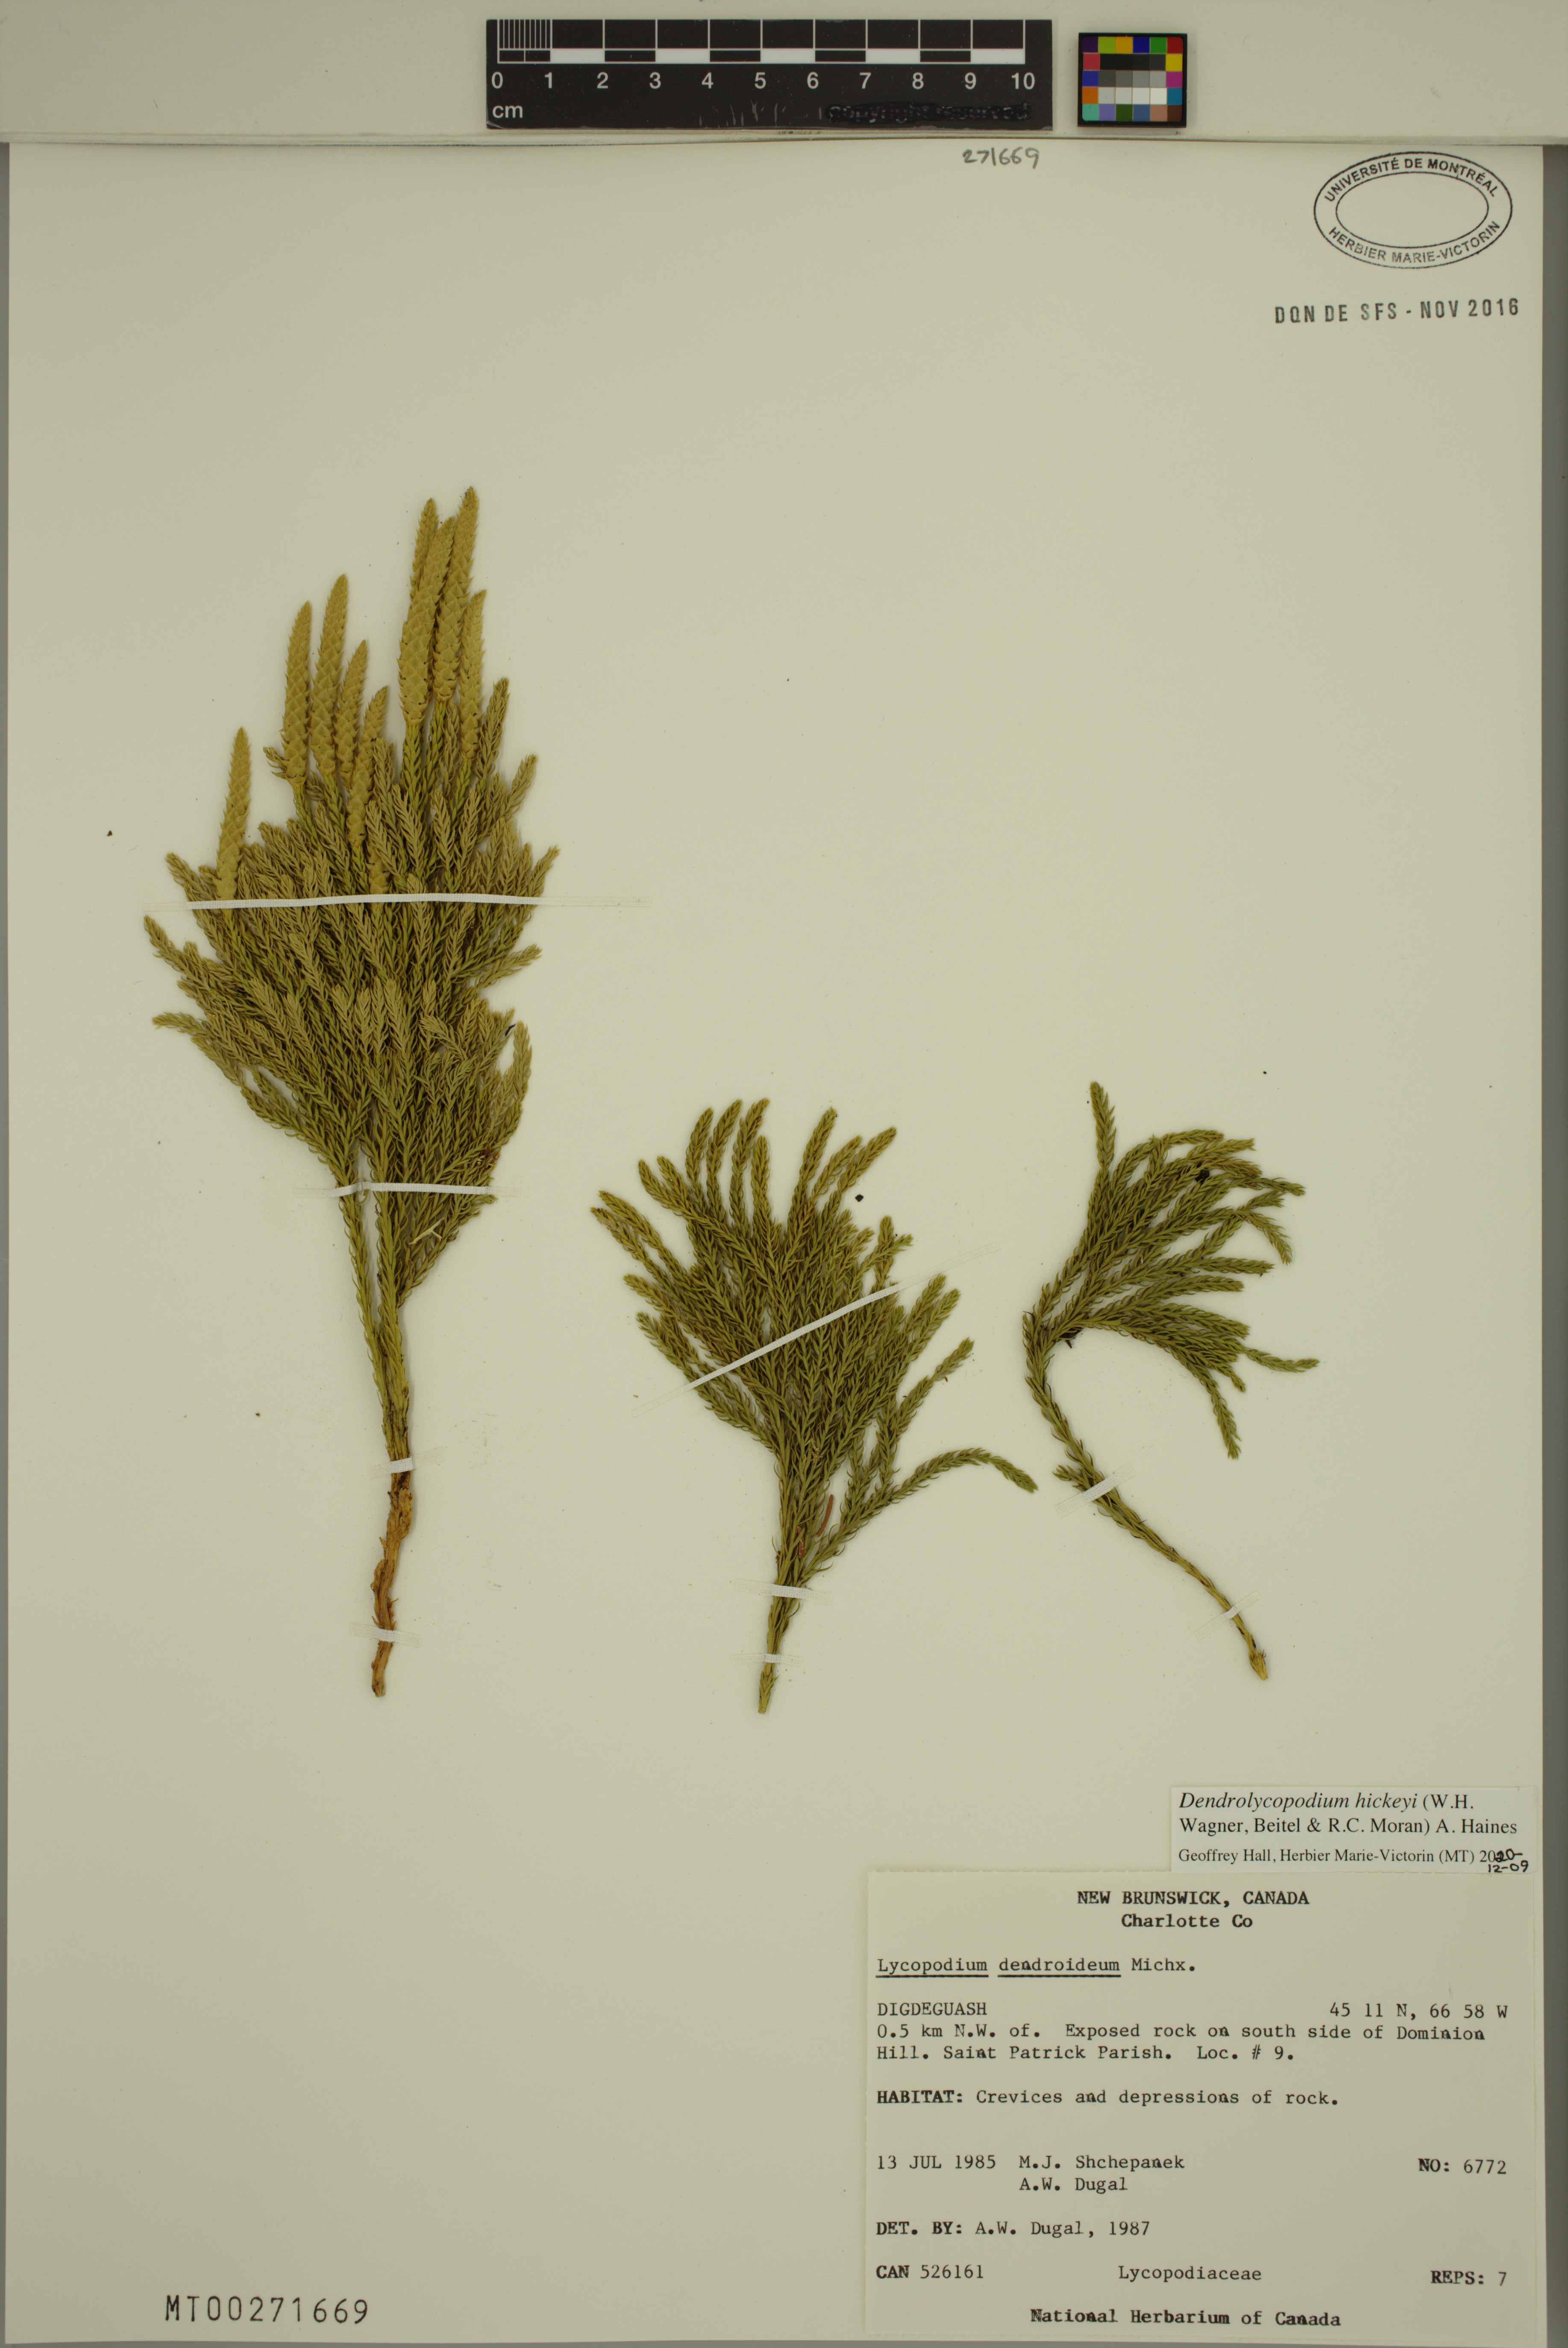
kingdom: Plantae
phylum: Tracheophyta
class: Lycopodiopsida
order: Lycopodiales
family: Lycopodiaceae
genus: Dendrolycopodium
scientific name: Dendrolycopodium hickeyi
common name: Hickey's clubmoss
